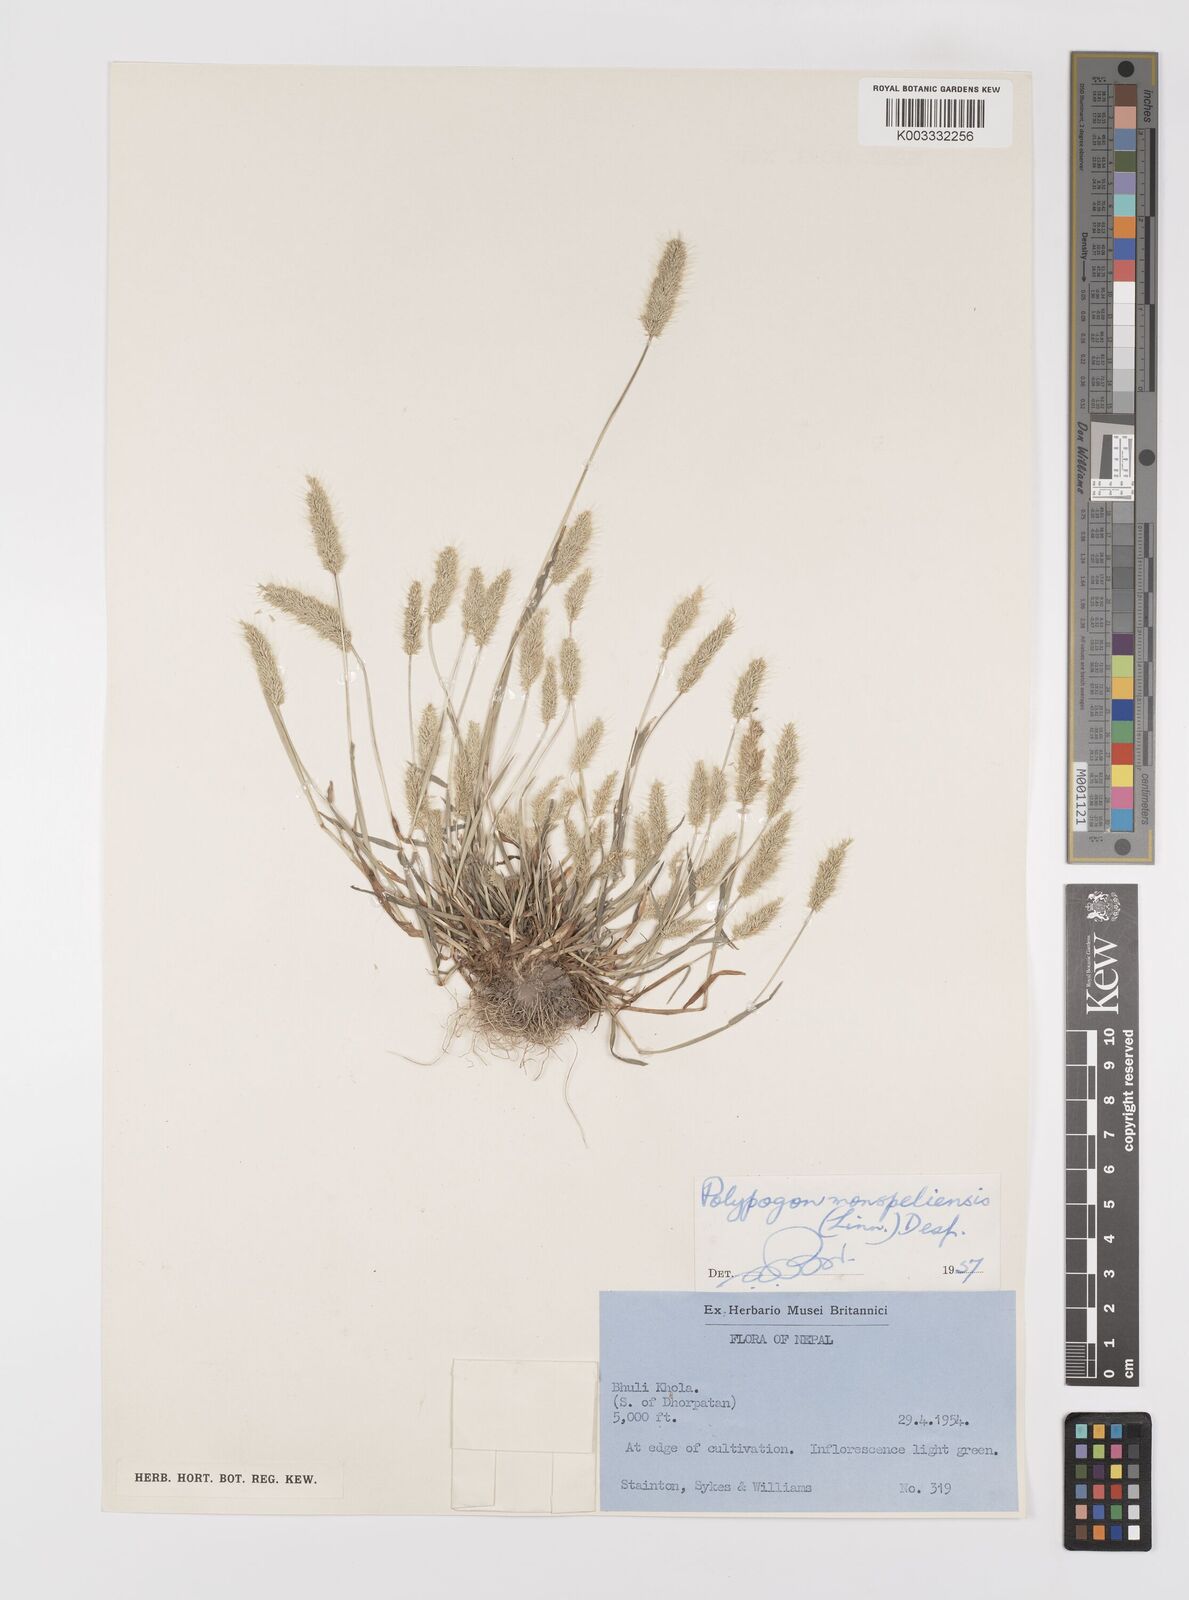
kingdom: Plantae
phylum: Tracheophyta
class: Liliopsida
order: Poales
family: Poaceae
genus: Polypogon
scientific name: Polypogon monspeliensis
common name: Annual rabbitsfoot grass
